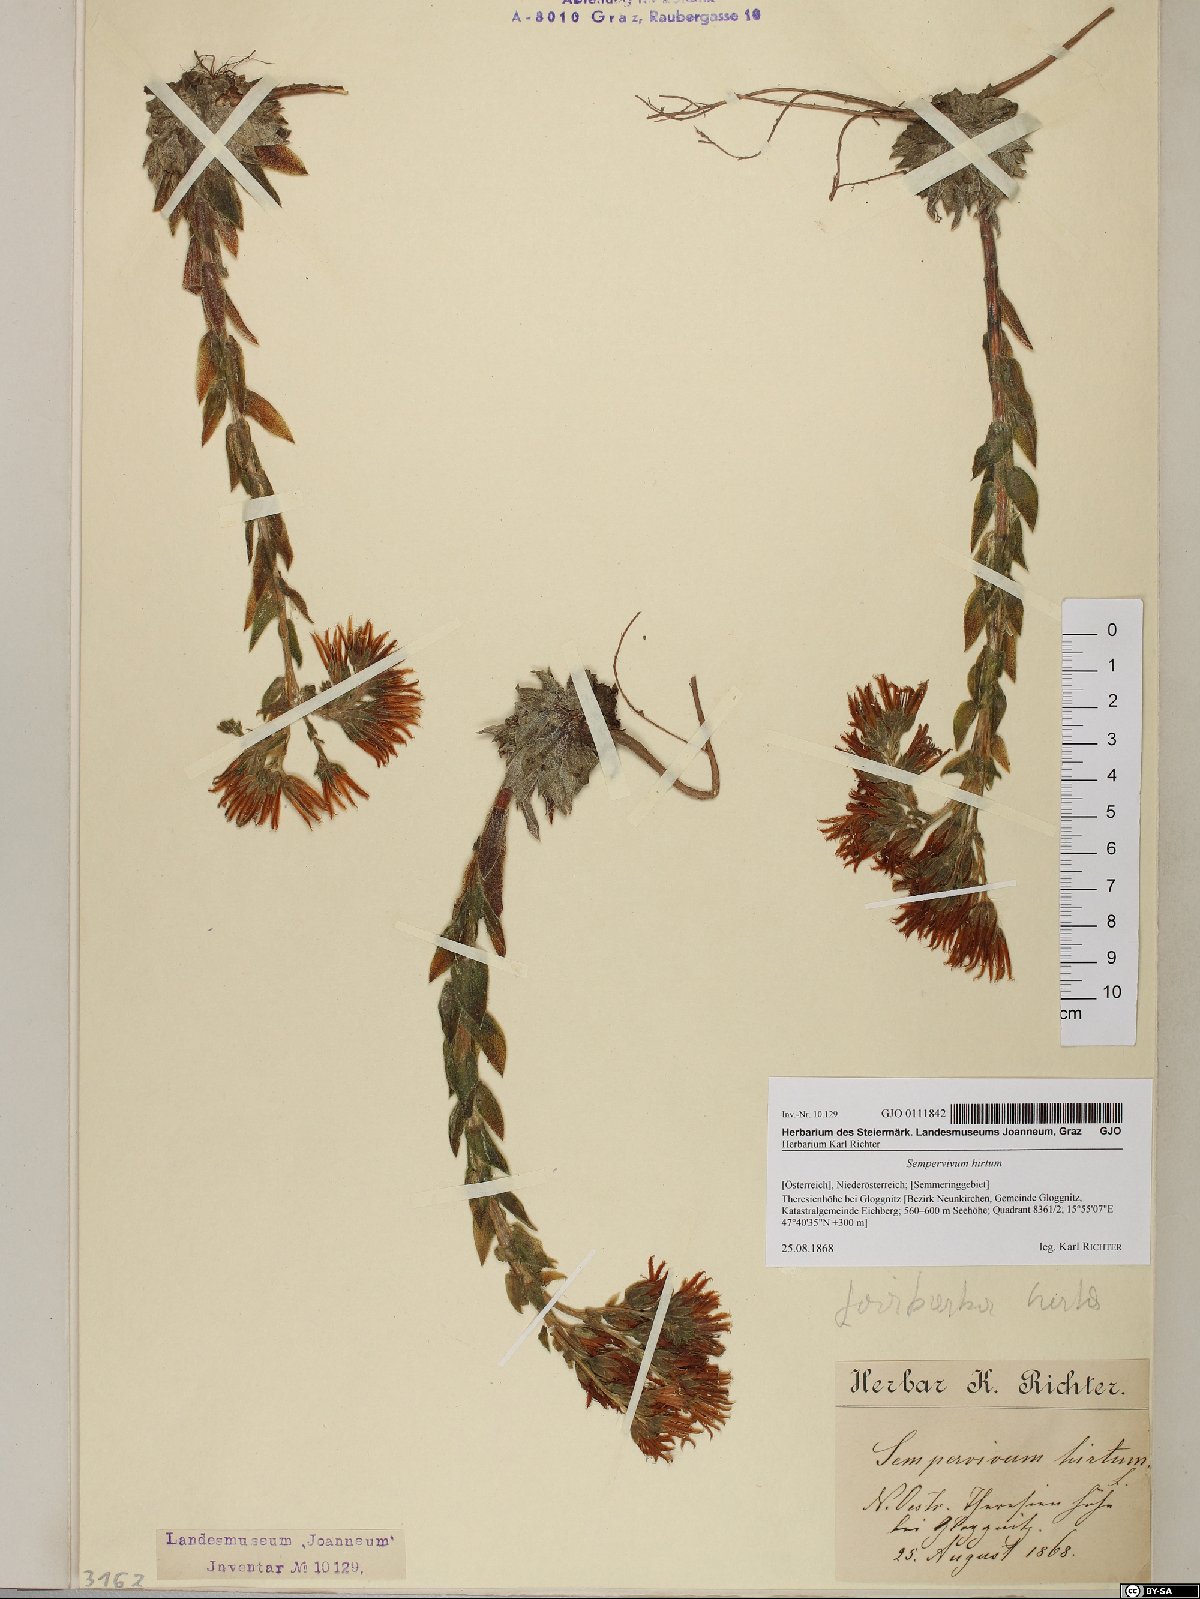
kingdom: Plantae
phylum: Tracheophyta
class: Magnoliopsida
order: Saxifragales
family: Crassulaceae
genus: Sempervivum
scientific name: Sempervivum globiferum
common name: Rolling hen-and-chicks
